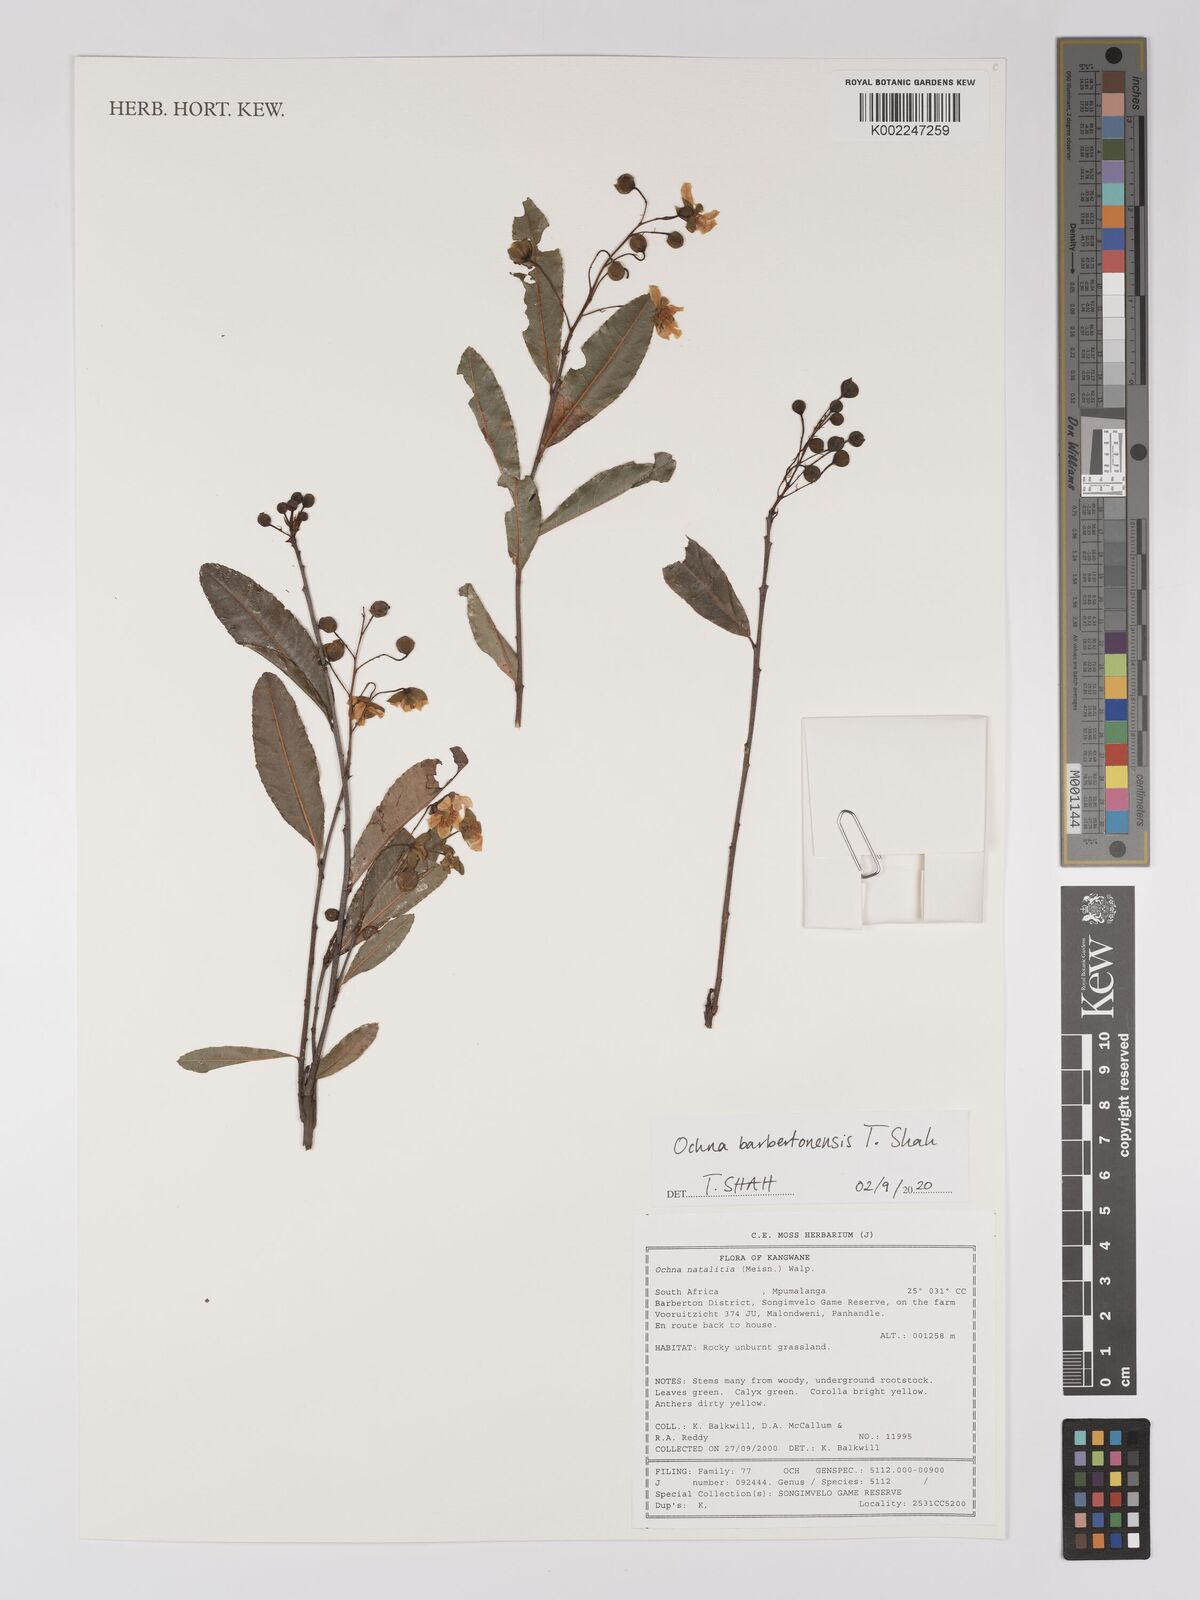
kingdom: Plantae
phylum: Tracheophyta
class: Magnoliopsida
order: Malpighiales
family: Ochnaceae
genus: Ochna
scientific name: Ochna barbertonensis
